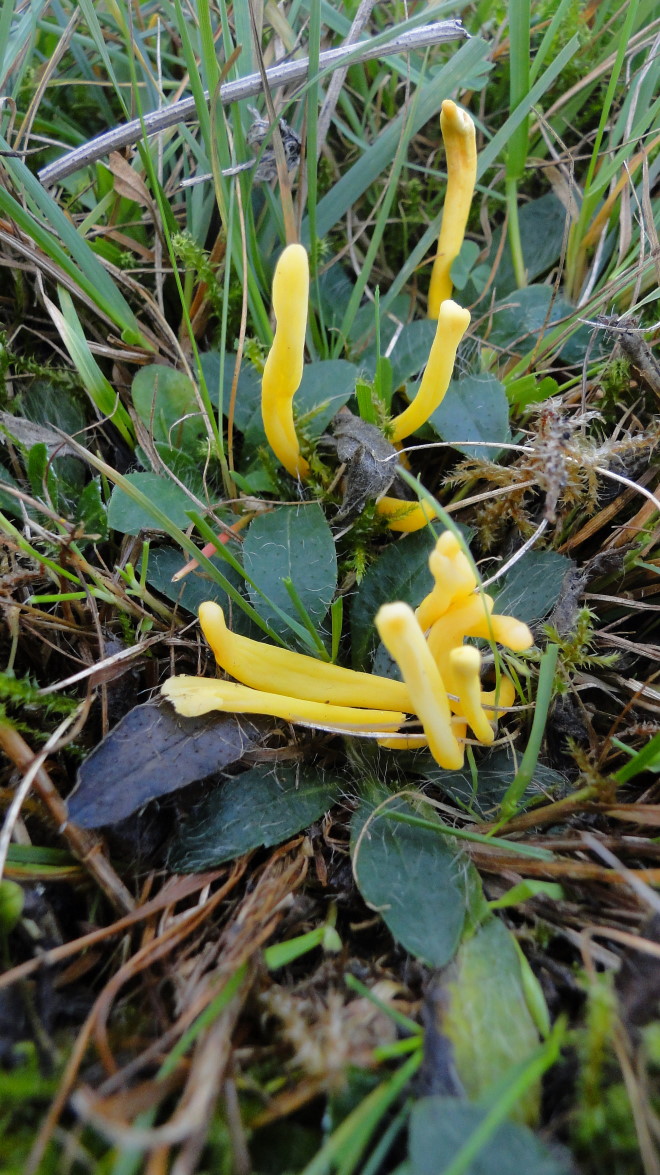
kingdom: Fungi
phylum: Basidiomycota
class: Agaricomycetes
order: Agaricales
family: Clavariaceae
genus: Clavulinopsis
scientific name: Clavulinopsis helvola
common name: orangegul køllesvamp
